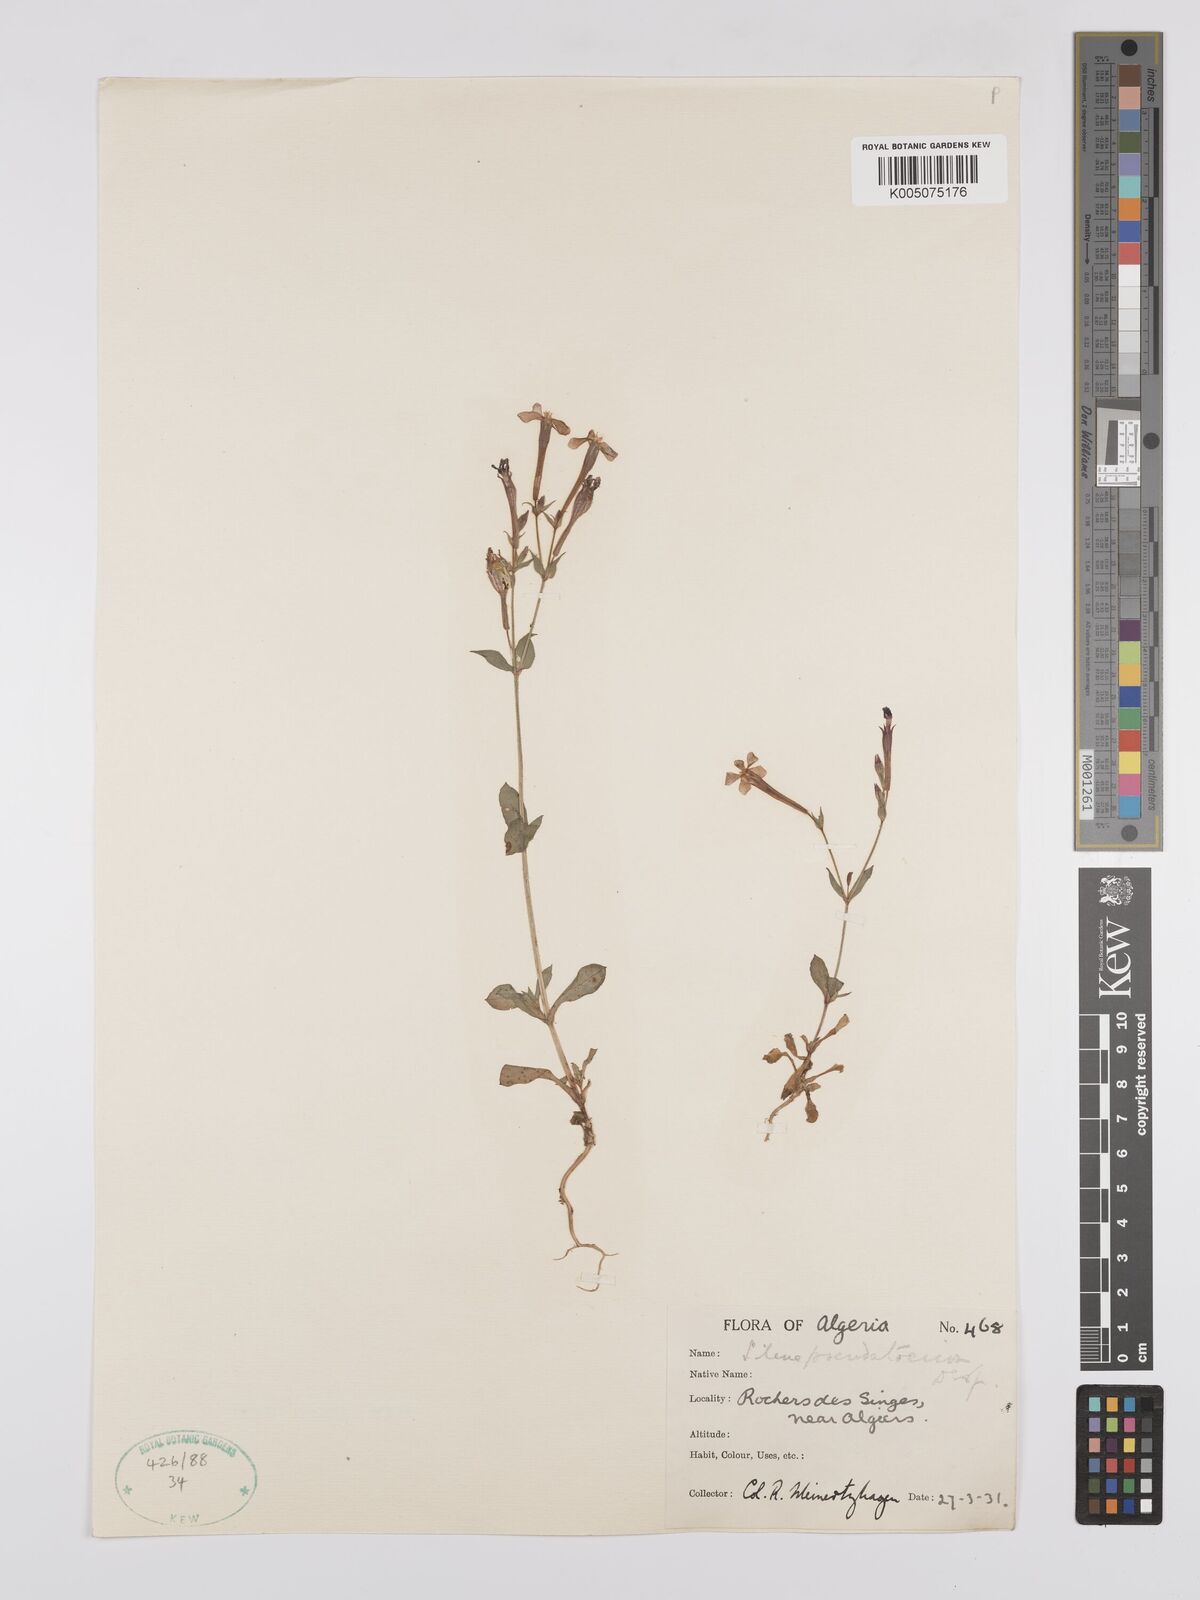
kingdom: Plantae
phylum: Tracheophyta
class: Magnoliopsida
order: Caryophyllales
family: Caryophyllaceae
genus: Silene
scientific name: Silene pseudoatocion
